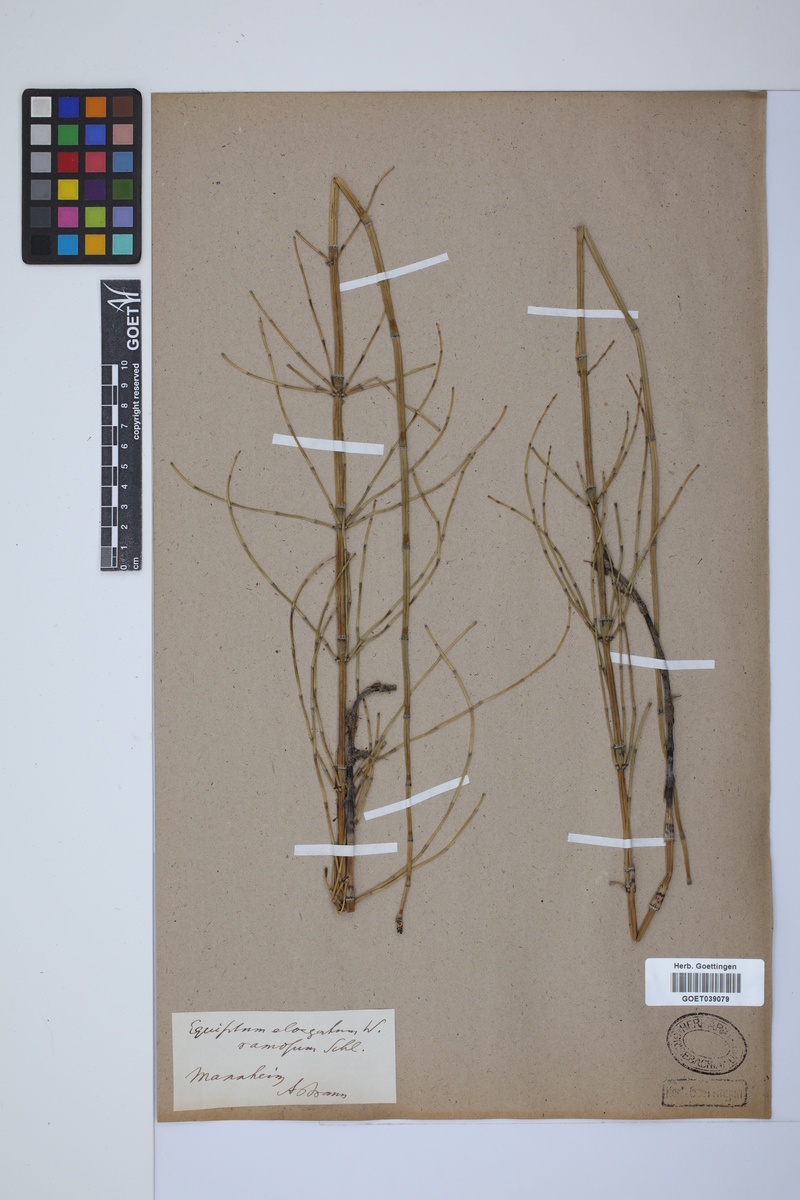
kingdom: Plantae
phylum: Tracheophyta
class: Polypodiopsida
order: Equisetales
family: Equisetaceae
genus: Equisetum
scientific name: Equisetum giganteum
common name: Giant horsetail
